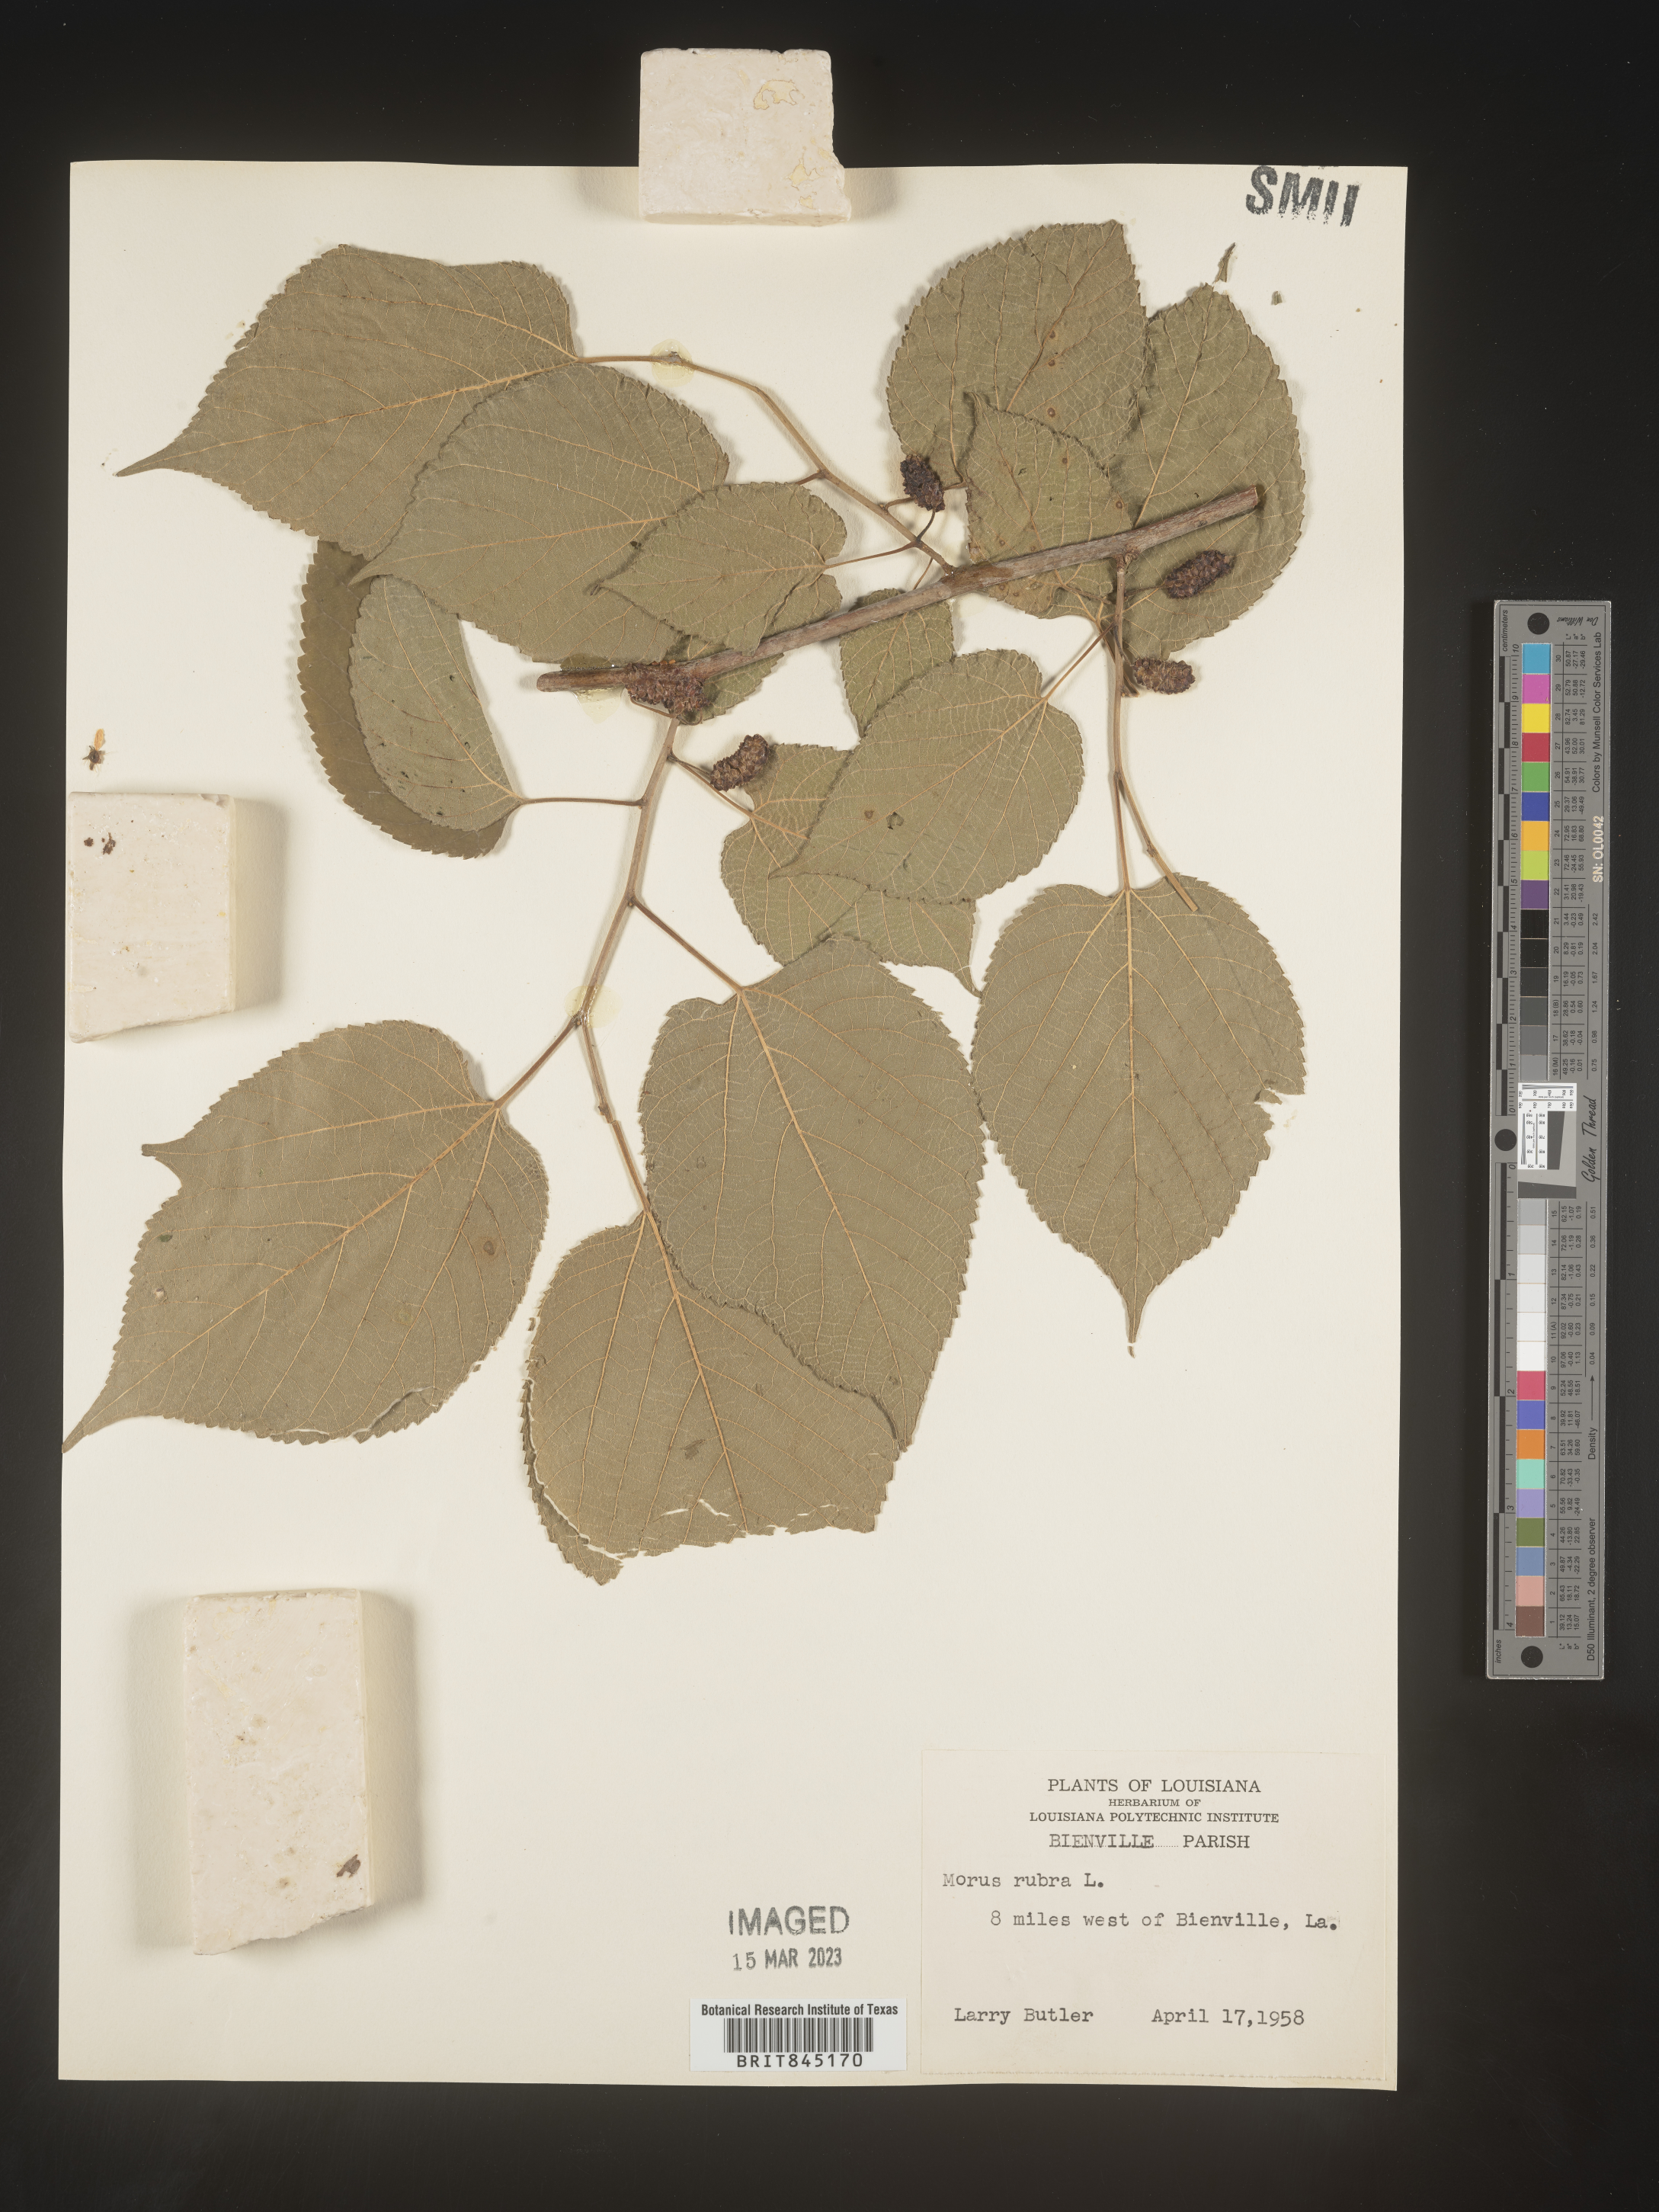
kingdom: Plantae
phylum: Tracheophyta
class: Magnoliopsida
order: Rosales
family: Moraceae
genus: Morus
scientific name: Morus rubra
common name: Red mulberry
